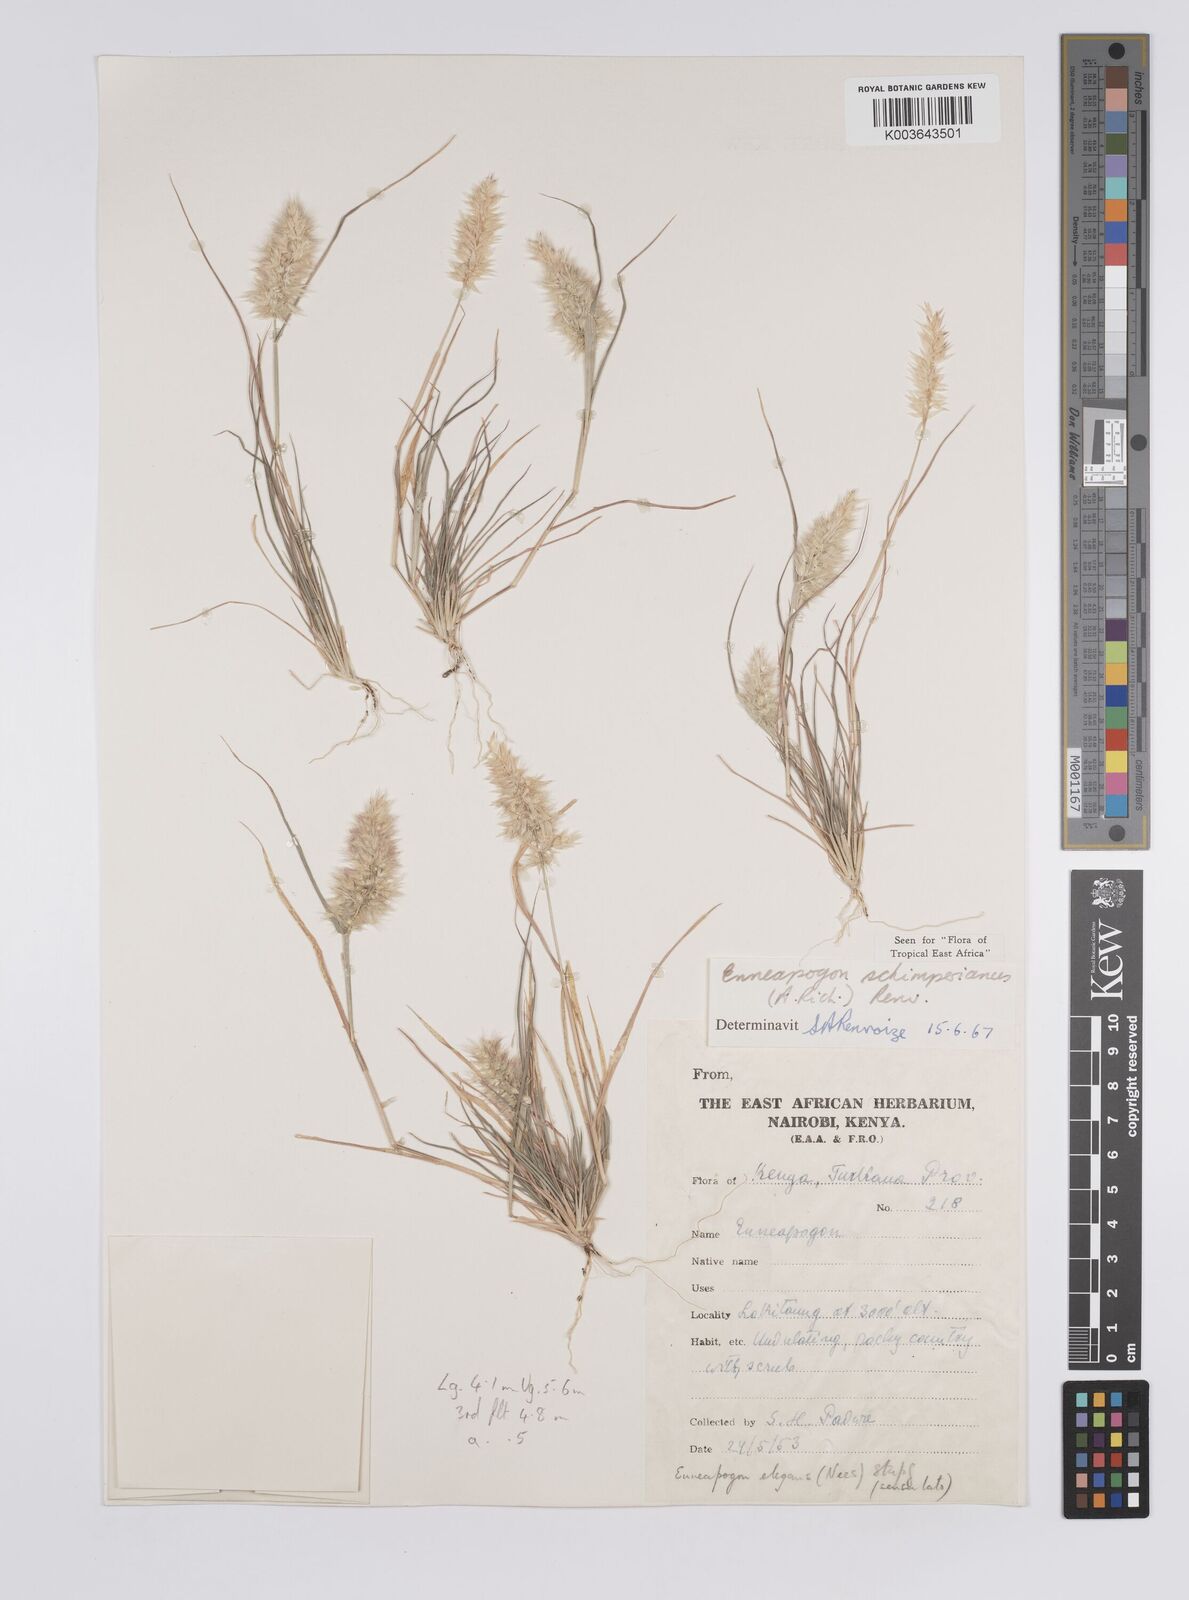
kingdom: Plantae
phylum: Tracheophyta
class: Liliopsida
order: Poales
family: Poaceae
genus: Enneapogon
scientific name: Enneapogon persicus
